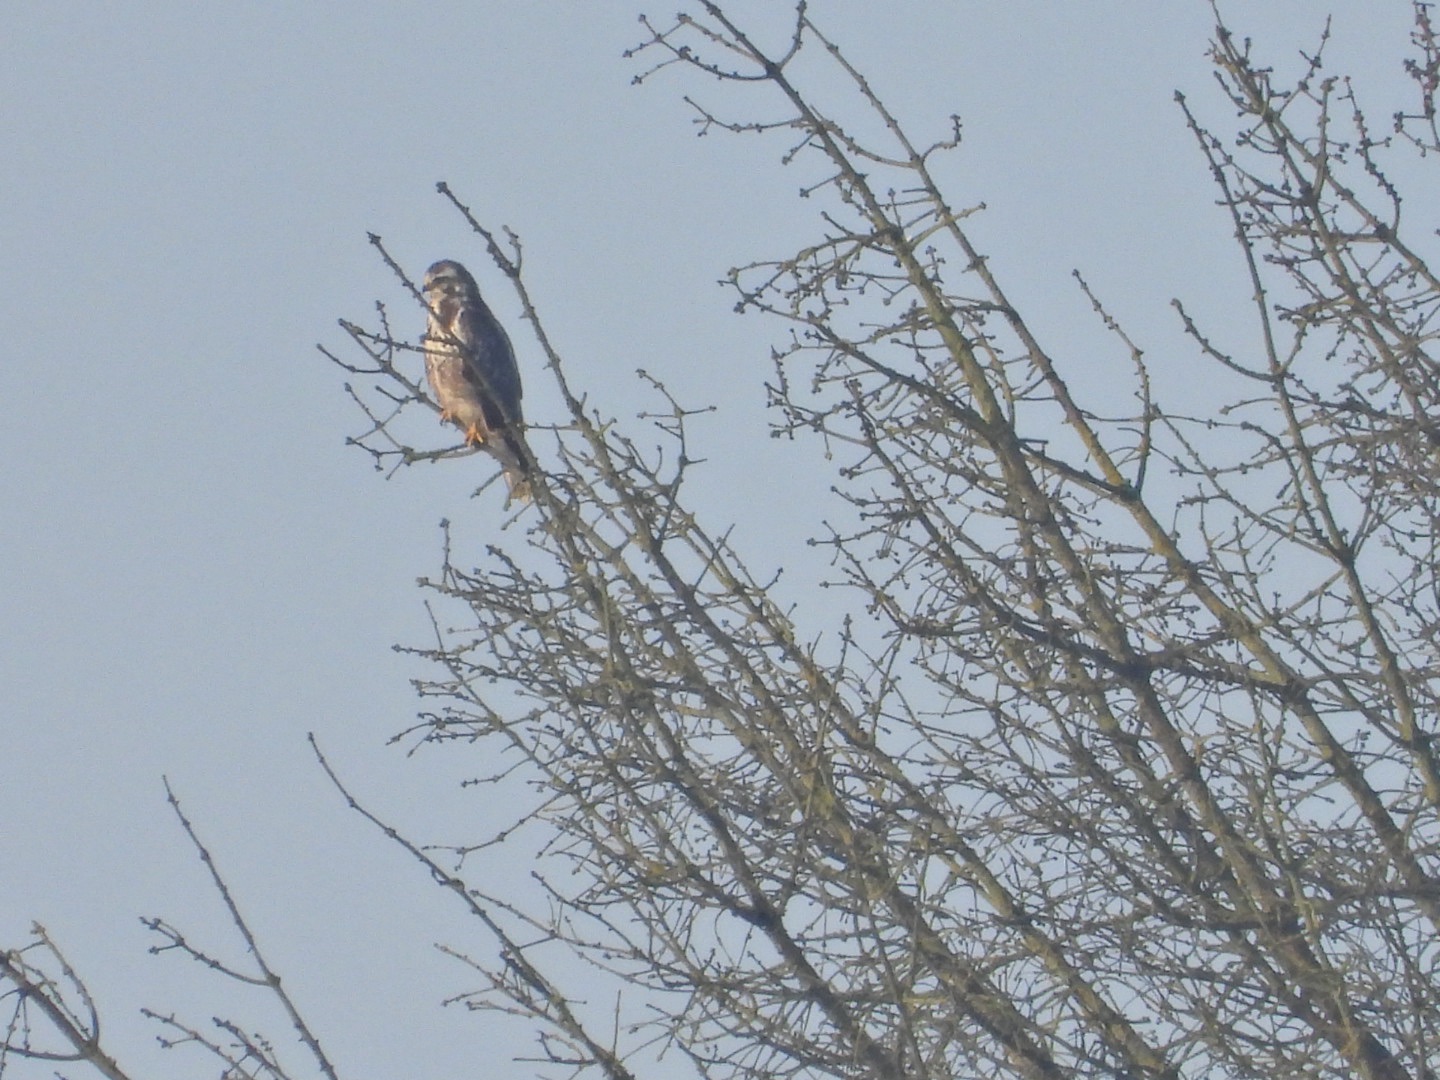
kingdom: Animalia
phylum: Chordata
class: Aves
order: Accipitriformes
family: Accipitridae
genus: Buteo
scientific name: Buteo buteo
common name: Musvåge
